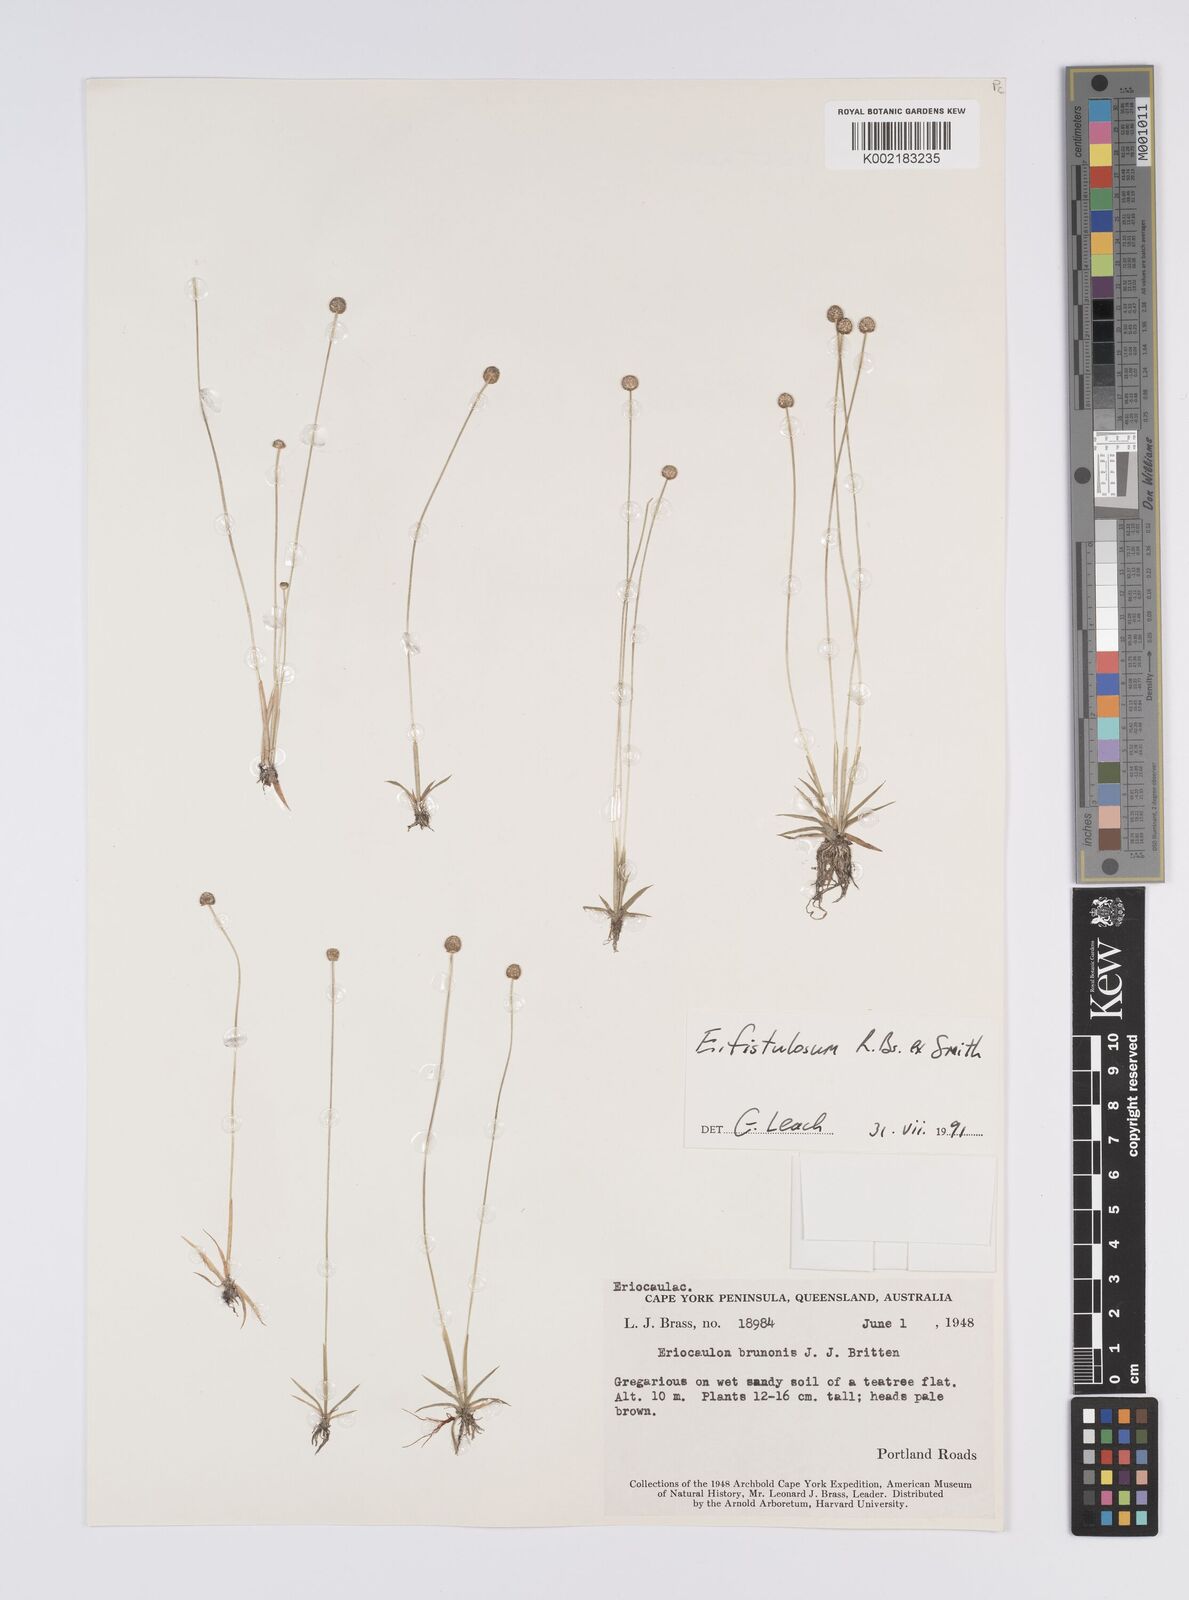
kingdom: Plantae
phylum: Tracheophyta
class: Liliopsida
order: Poales
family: Eriocaulaceae
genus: Eriocaulon
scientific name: Eriocaulon fistulosum
